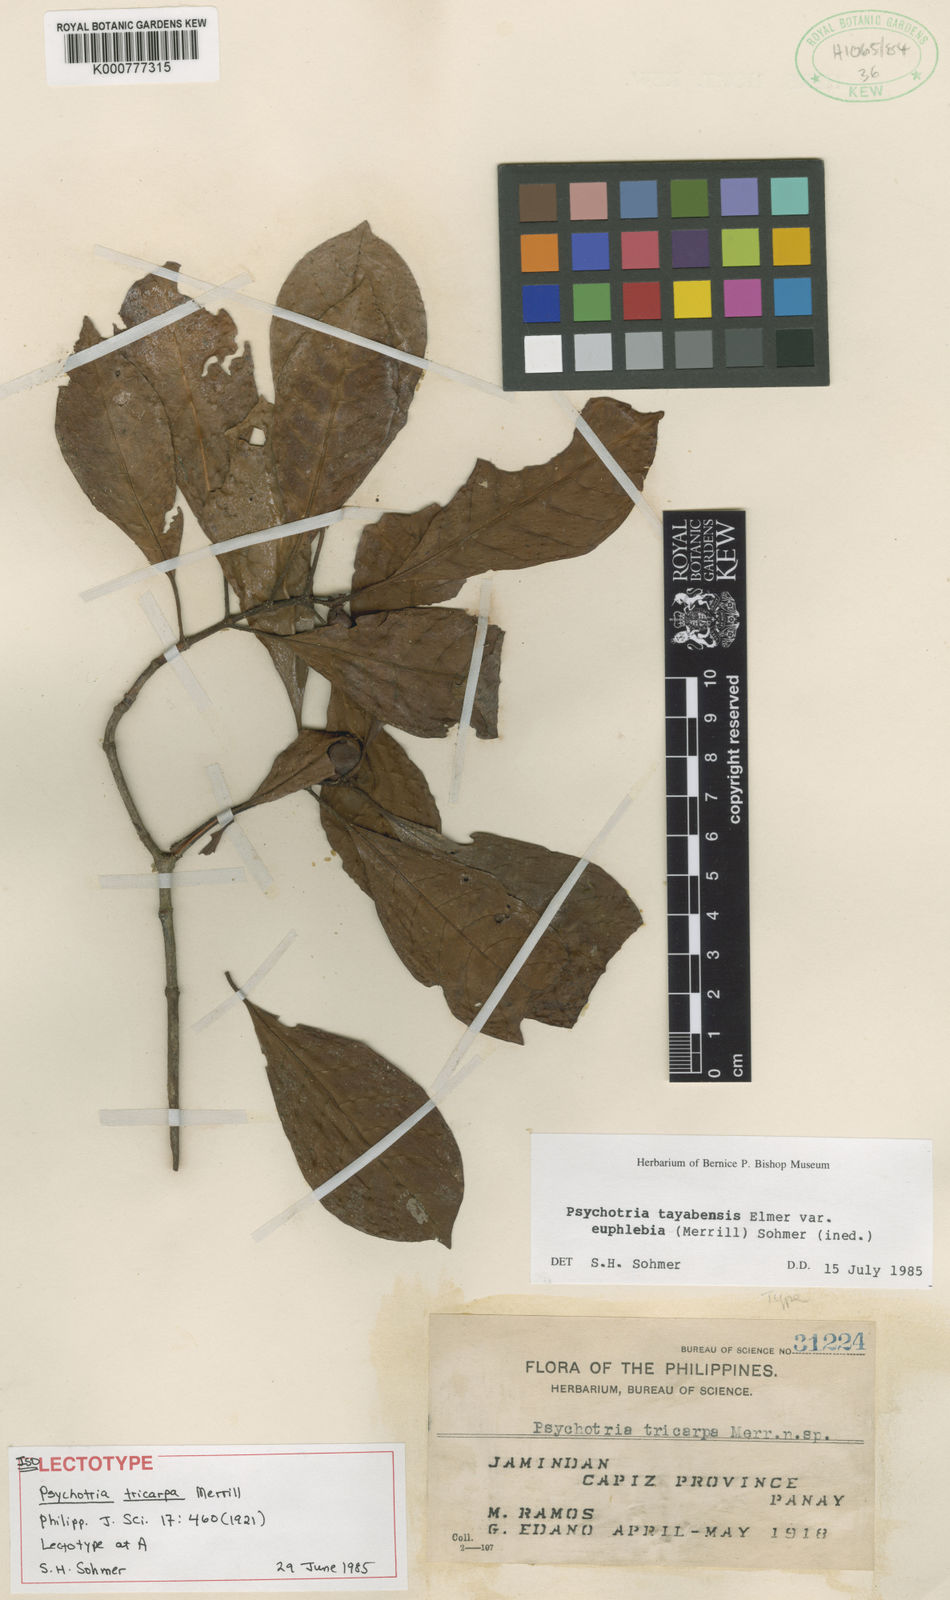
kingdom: Plantae
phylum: Tracheophyta
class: Magnoliopsida
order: Gentianales
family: Rubiaceae
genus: Psychotria
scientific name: Psychotria tayabensis
